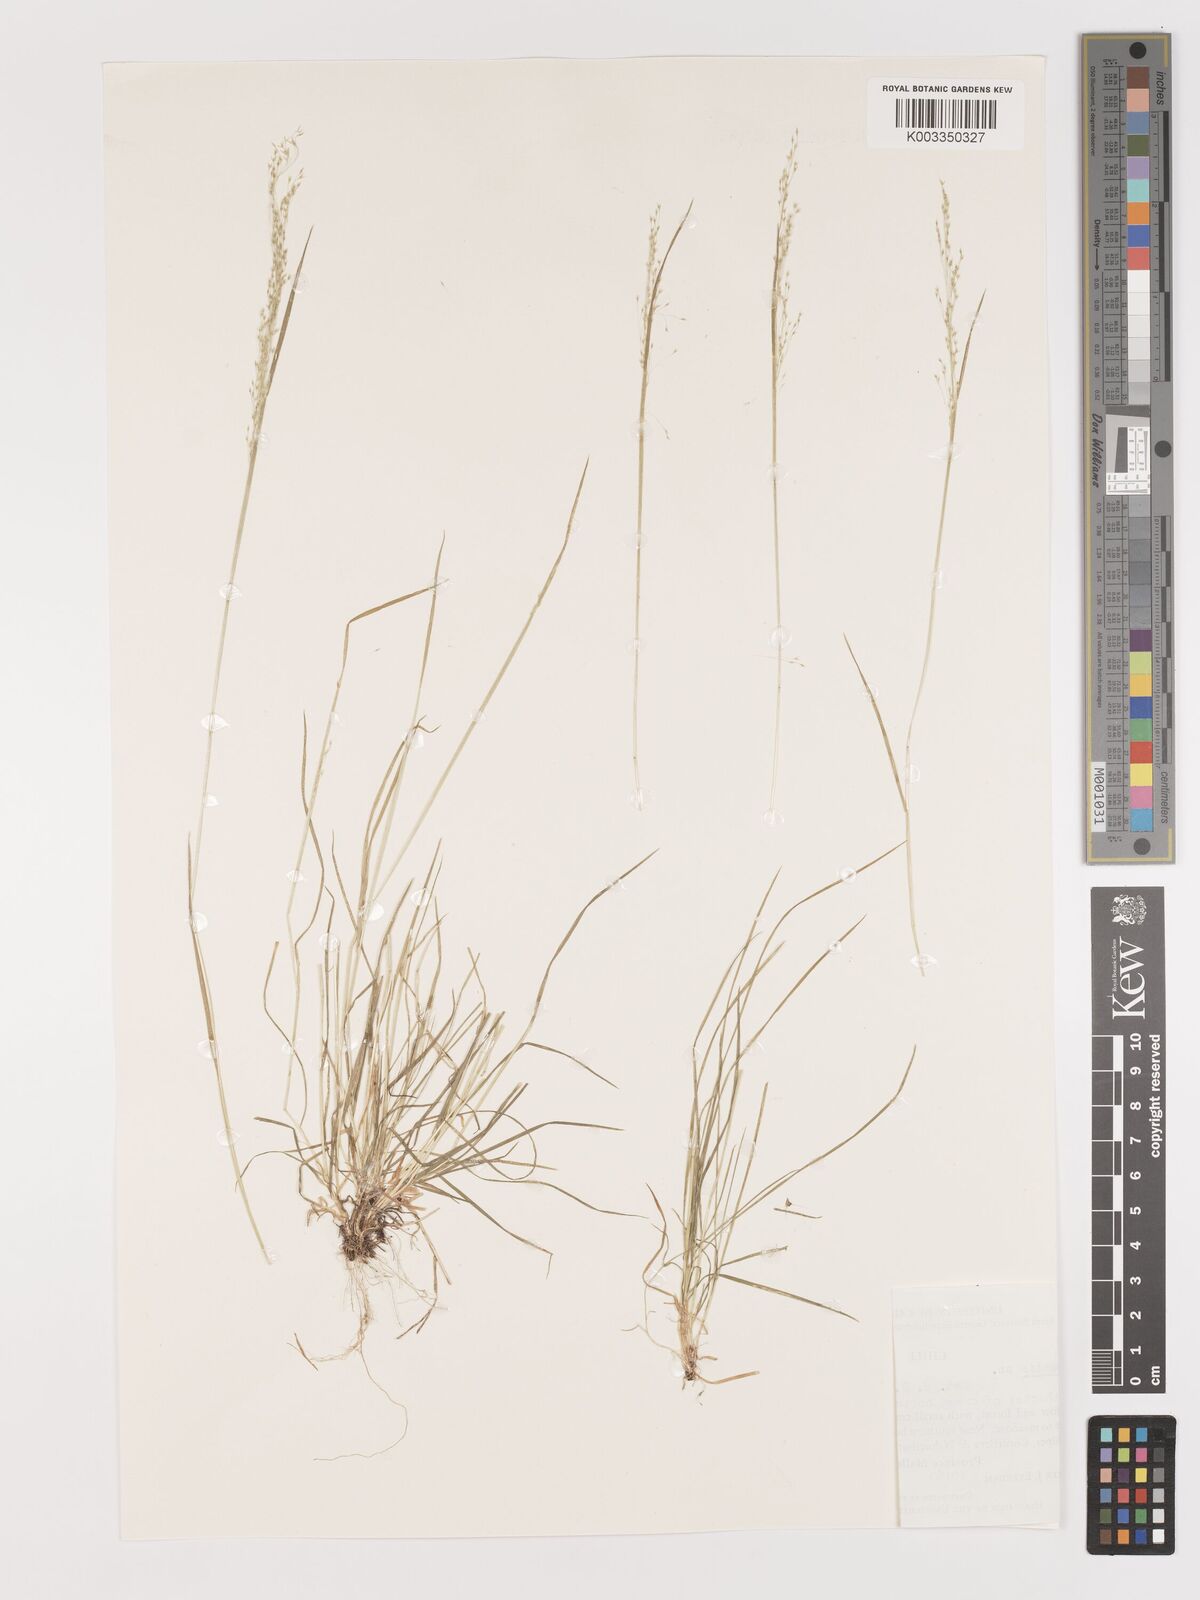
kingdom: Plantae
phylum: Tracheophyta
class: Liliopsida
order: Poales
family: Poaceae
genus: Agrostis
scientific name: Agrostis
